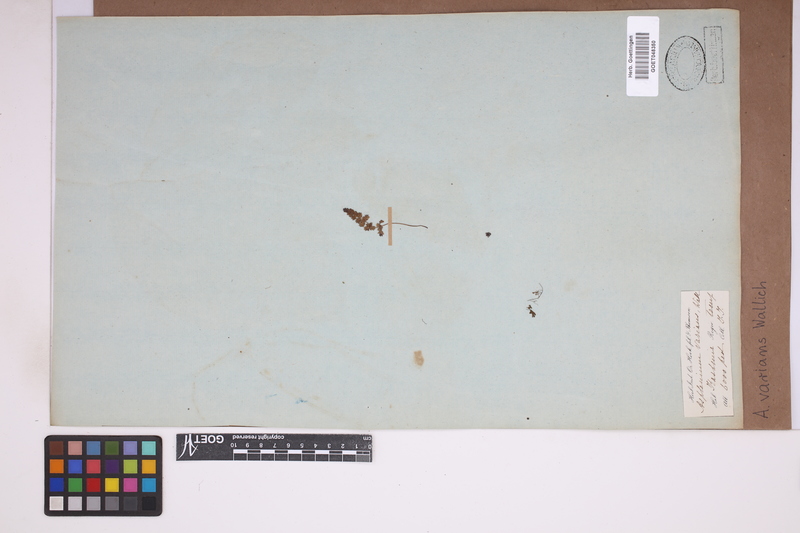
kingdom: Plantae
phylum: Tracheophyta
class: Polypodiopsida
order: Polypodiales
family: Aspleniaceae
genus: Asplenium
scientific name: Asplenium laciniatum
